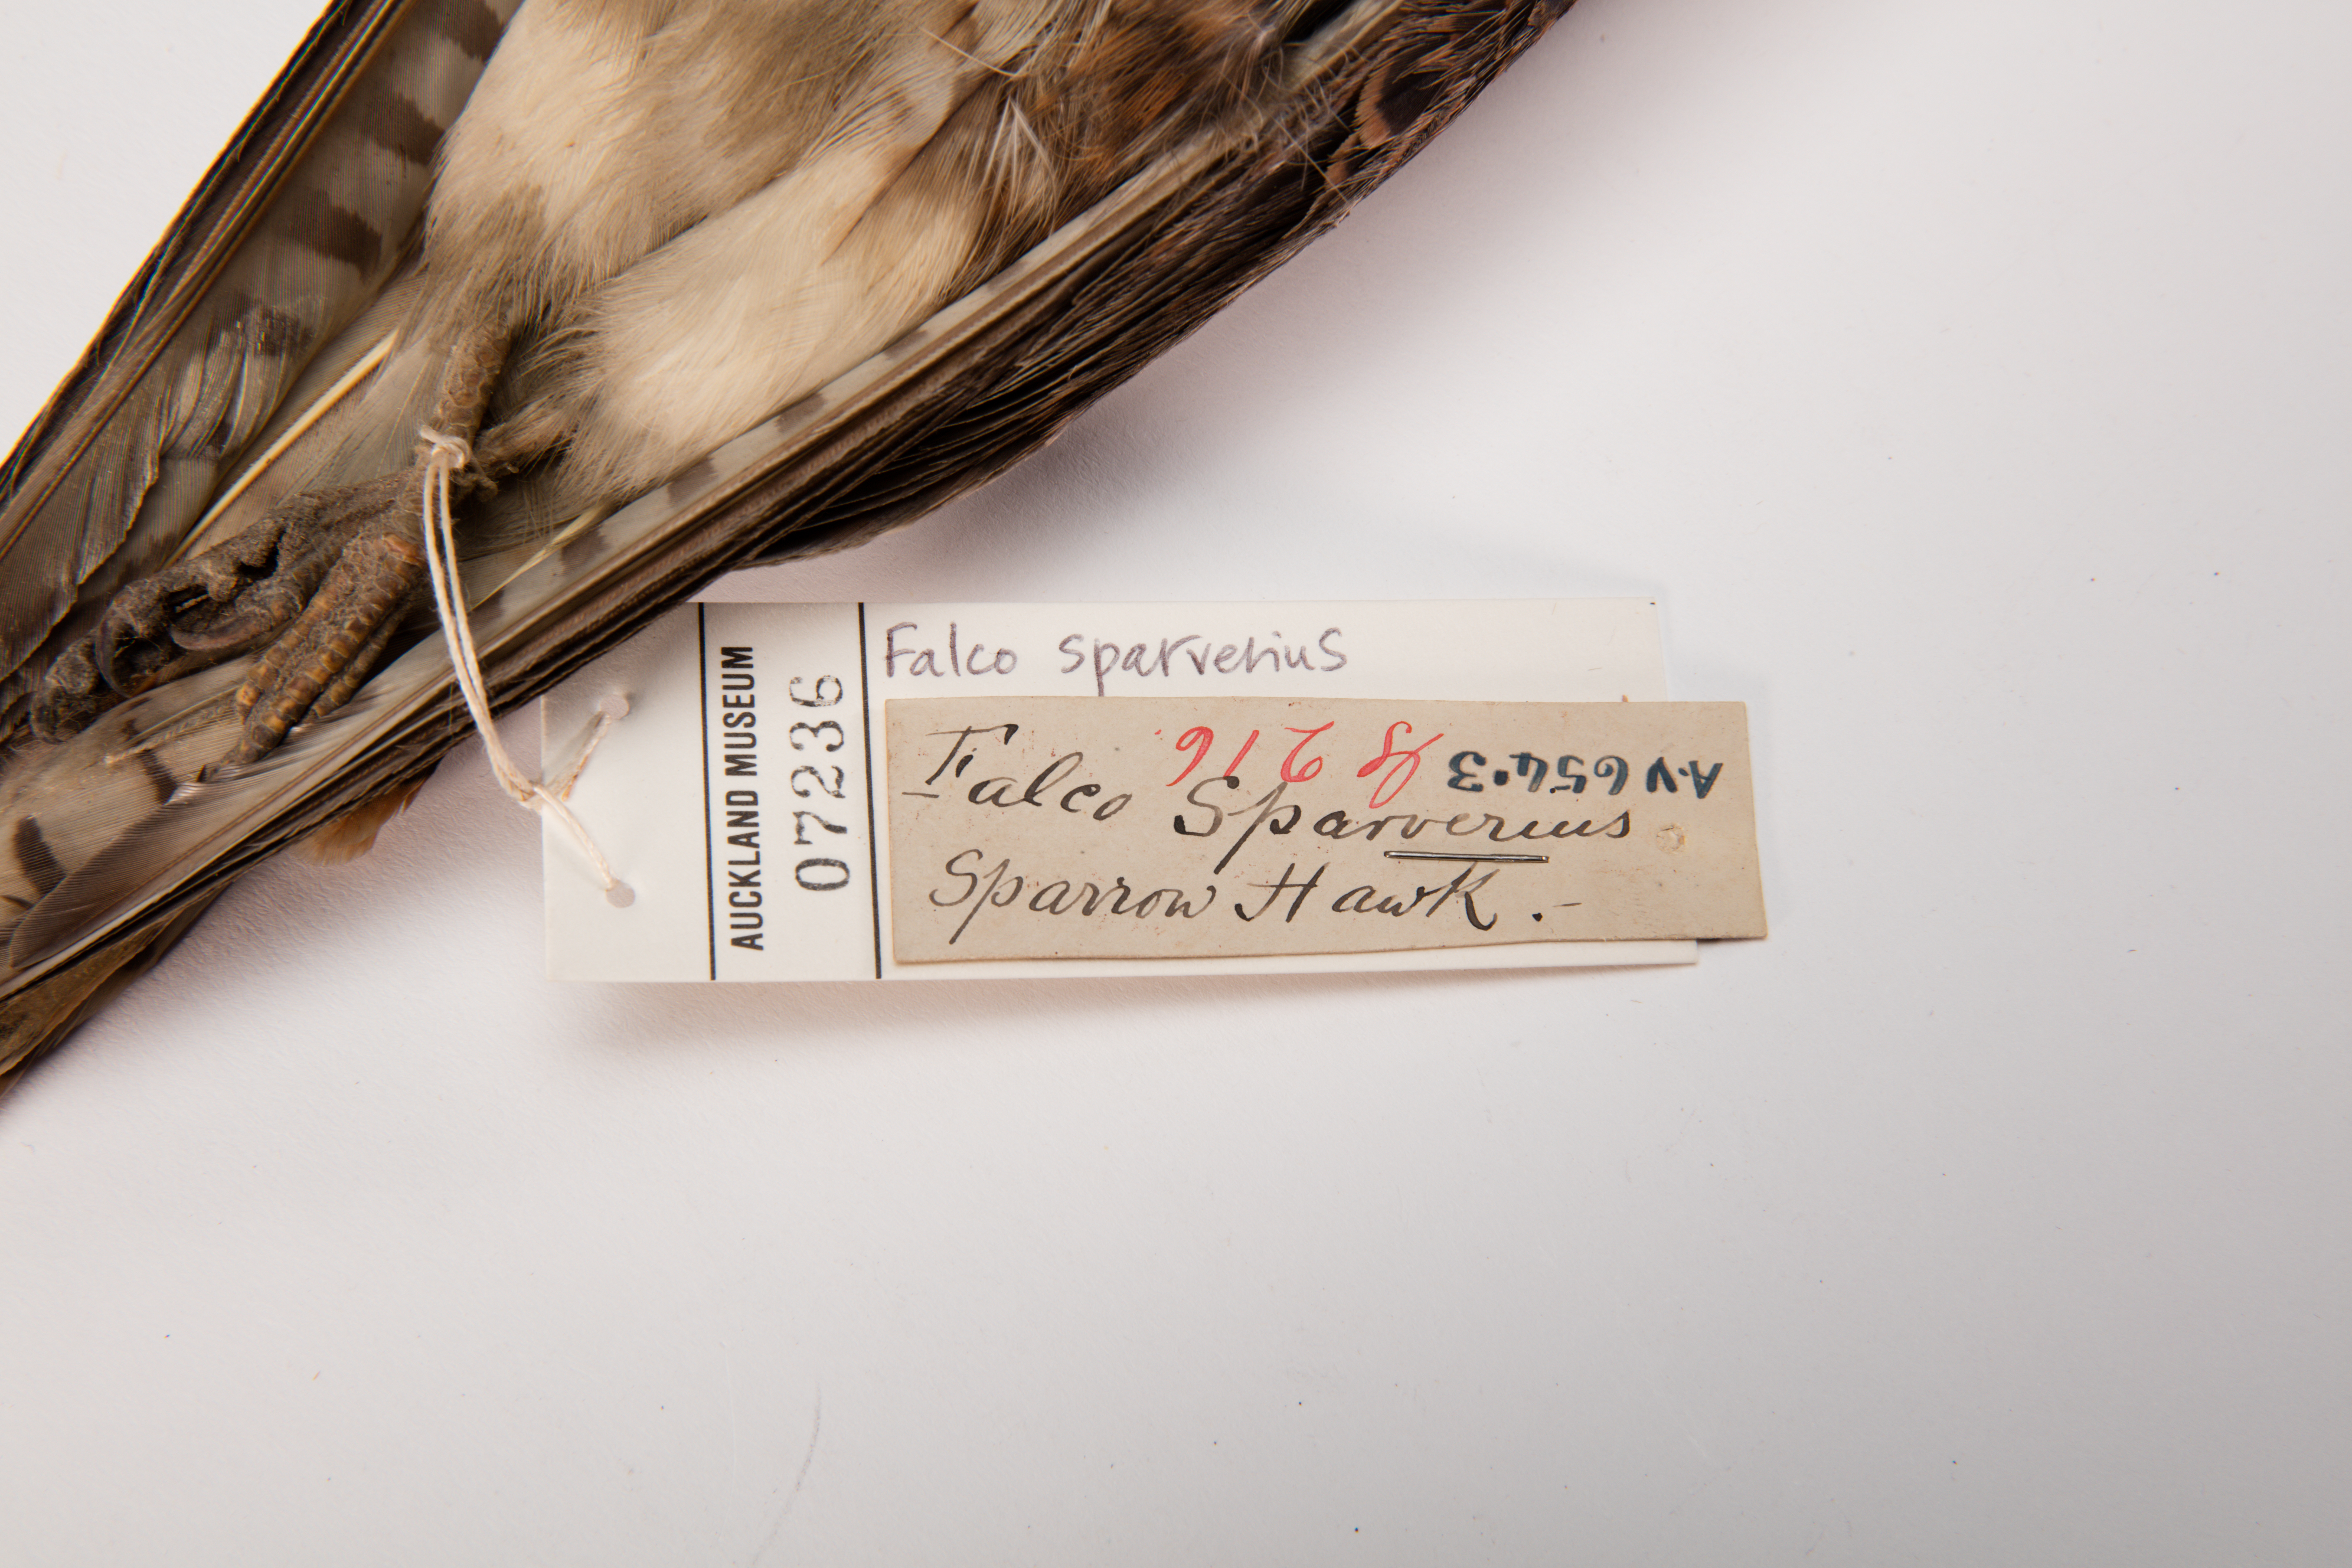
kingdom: Animalia
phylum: Chordata
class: Aves
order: Falconiformes
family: Falconidae
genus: Falco
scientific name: Falco sparverius
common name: American kestrel
